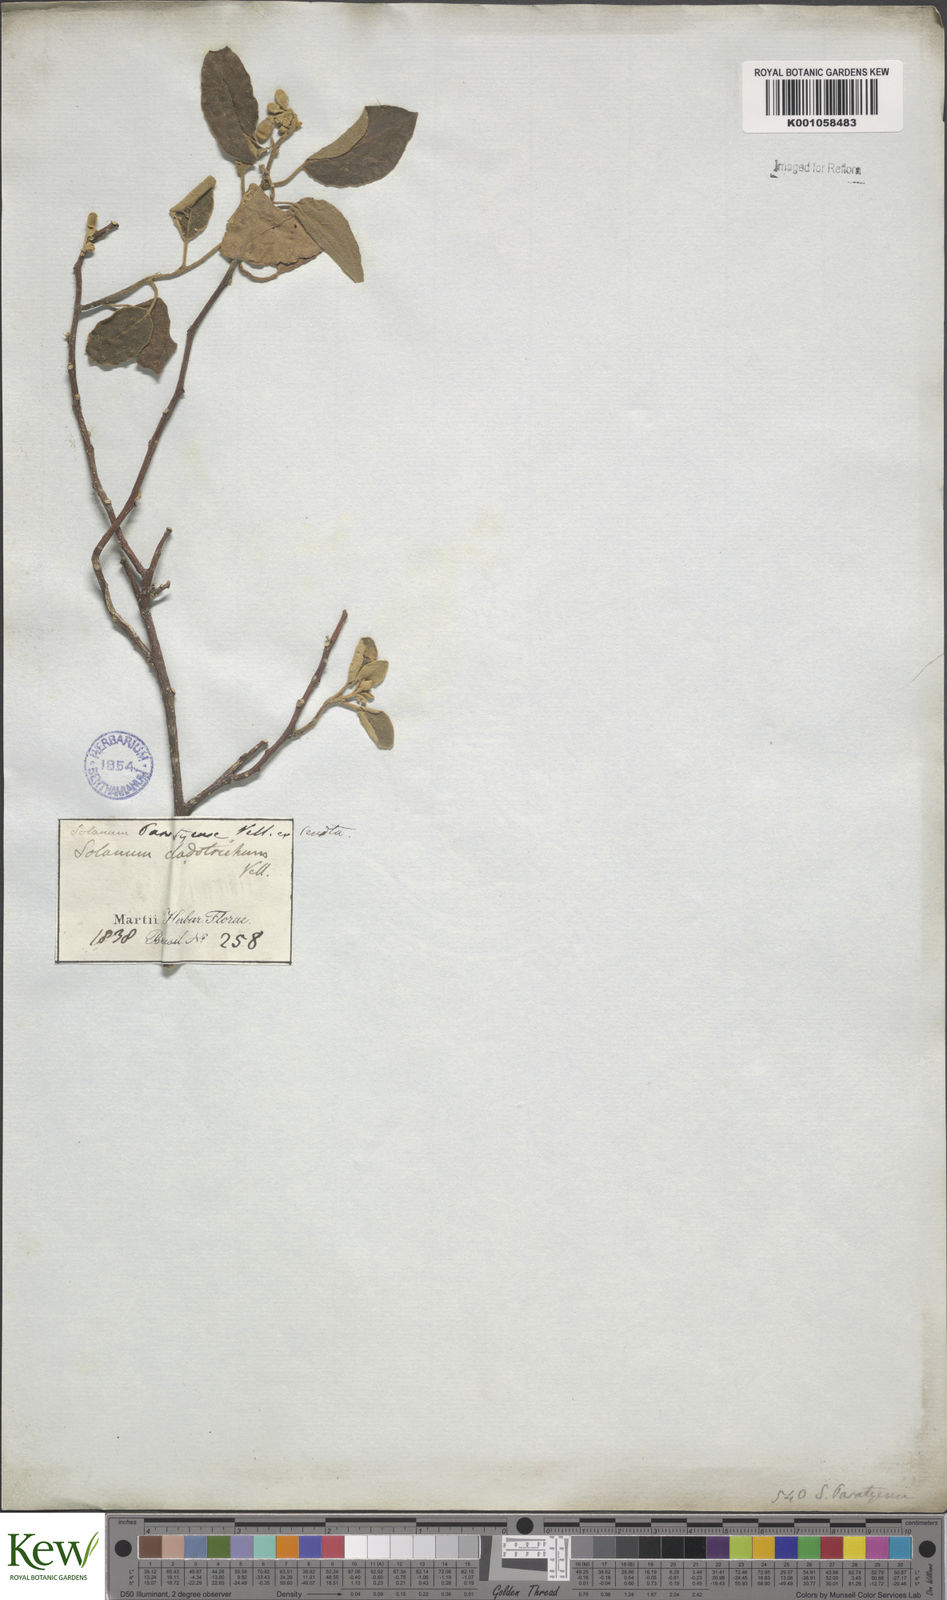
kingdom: Plantae
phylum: Tracheophyta
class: Magnoliopsida
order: Solanales
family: Solanaceae
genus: Solanum
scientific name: Solanum jussiaei
